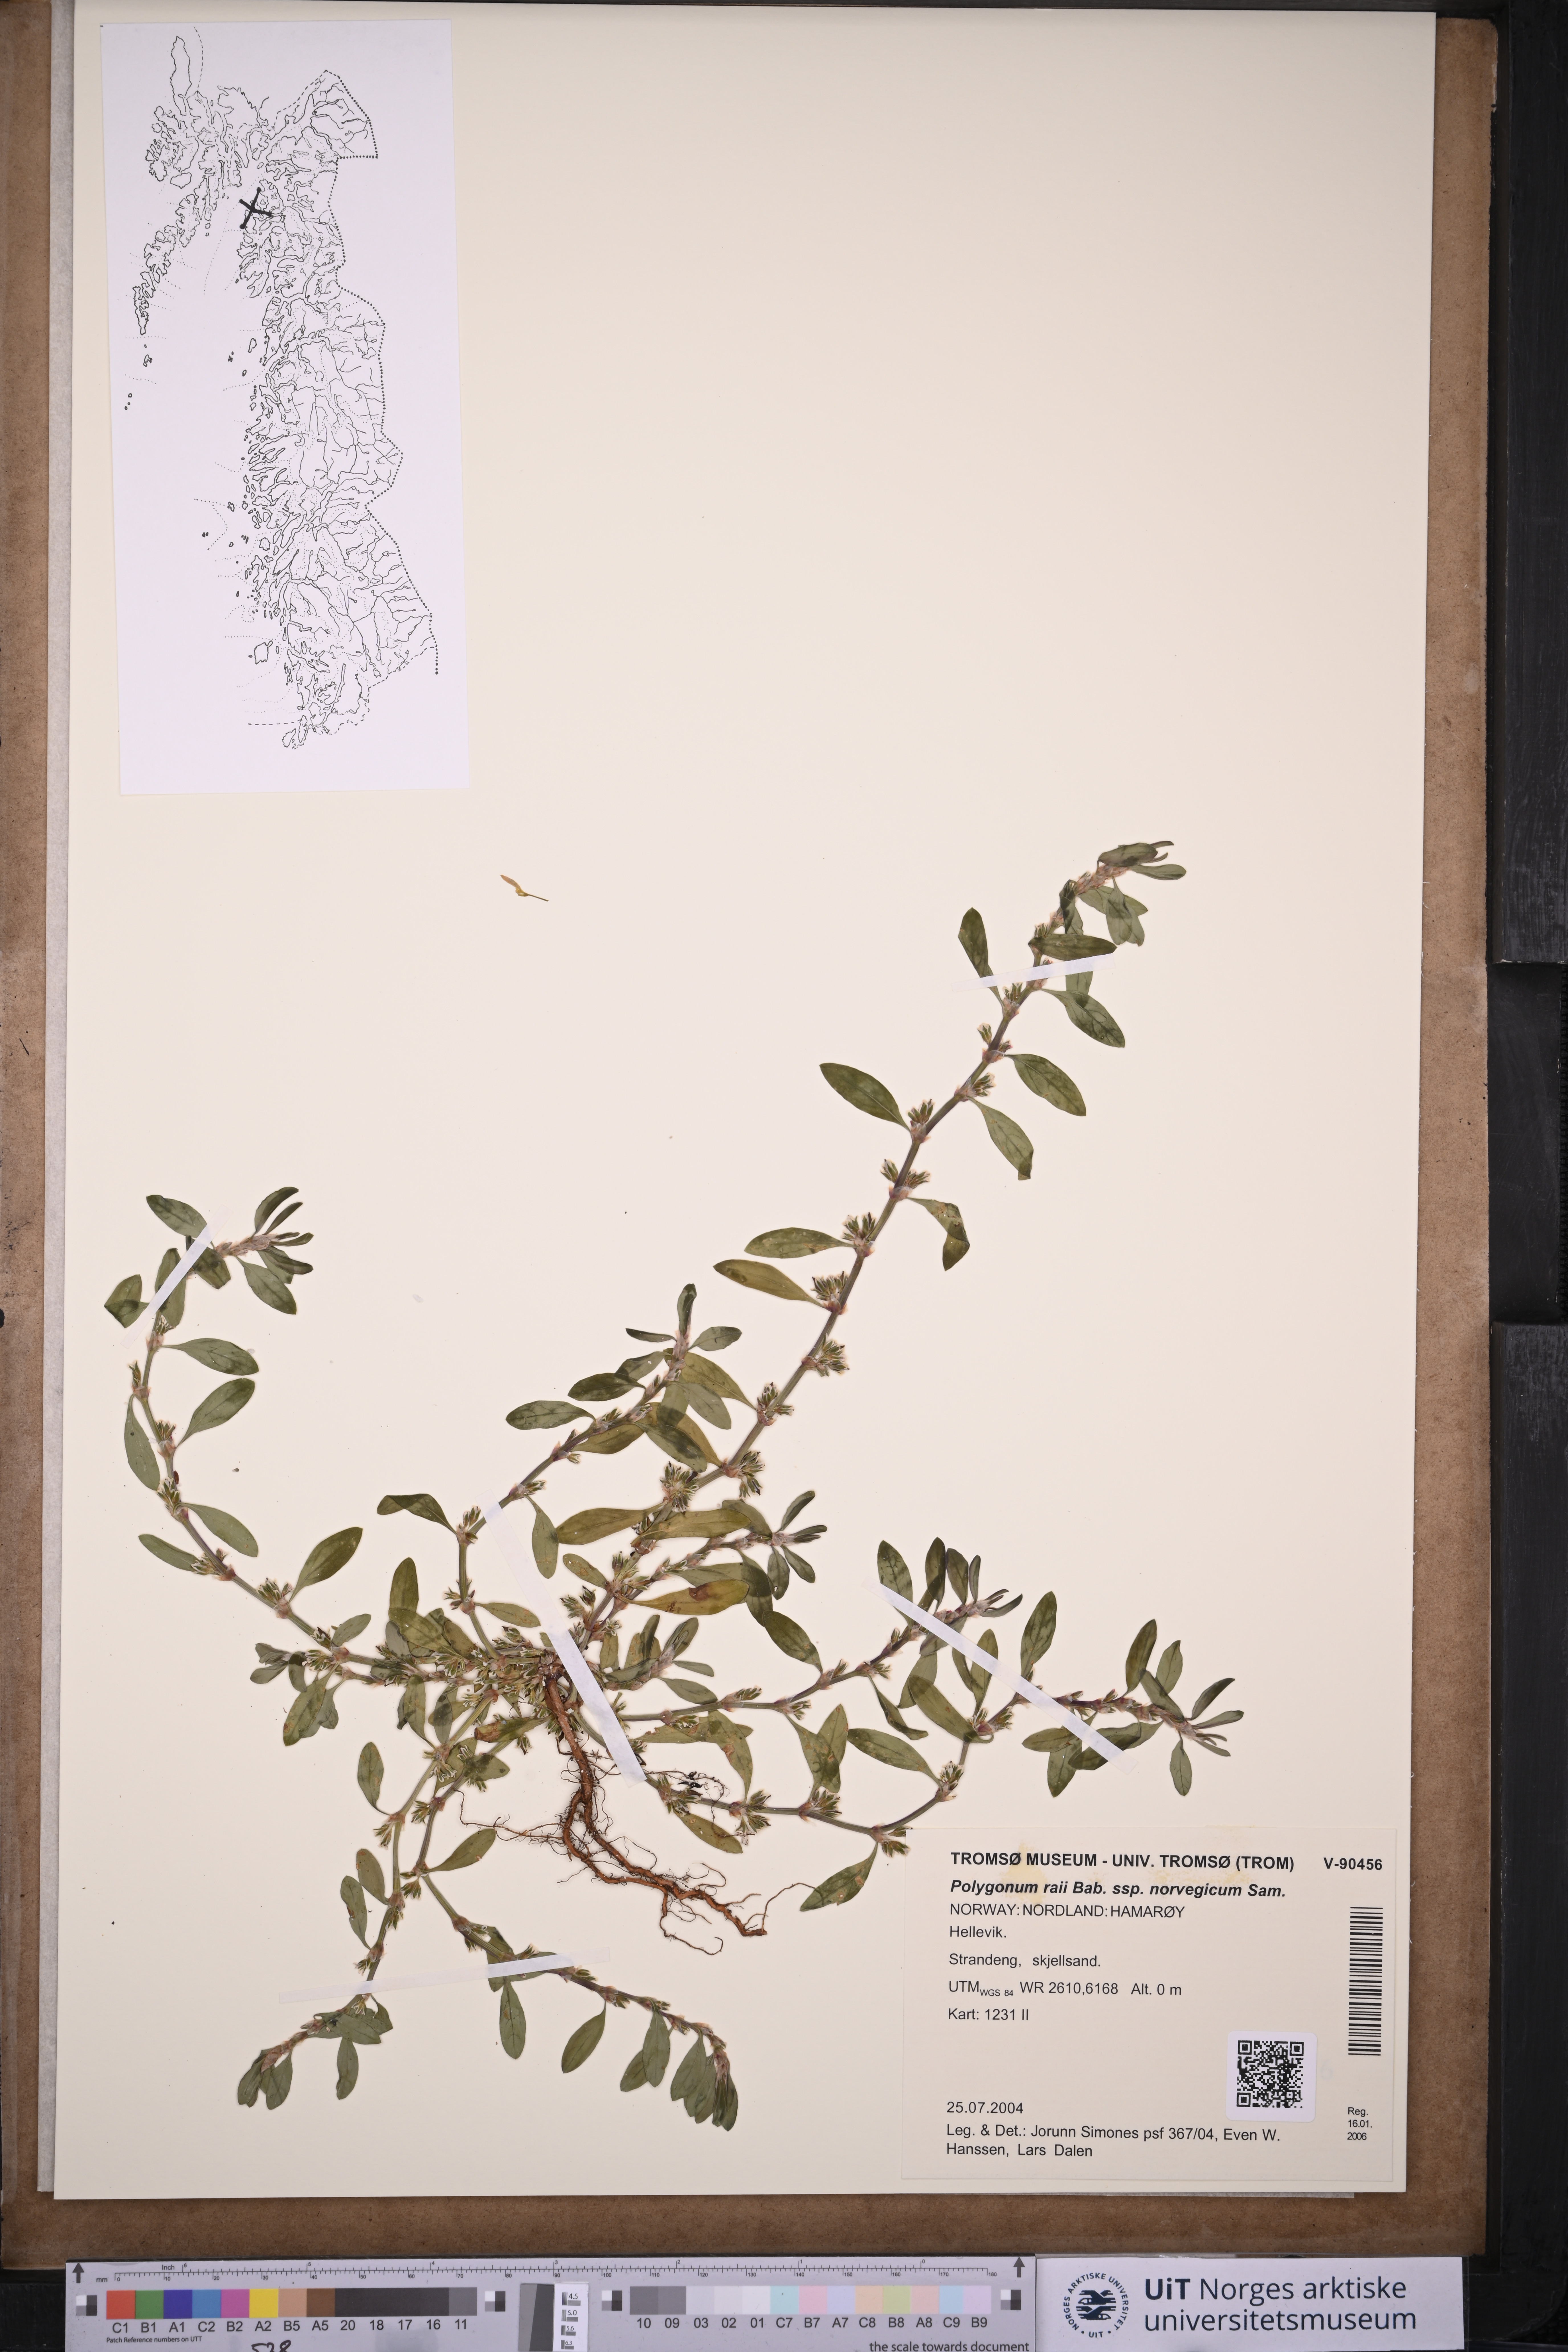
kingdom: Plantae
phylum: Tracheophyta
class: Magnoliopsida
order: Caryophyllales
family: Polygonaceae
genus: Polygonum
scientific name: Polygonum norvegicum
